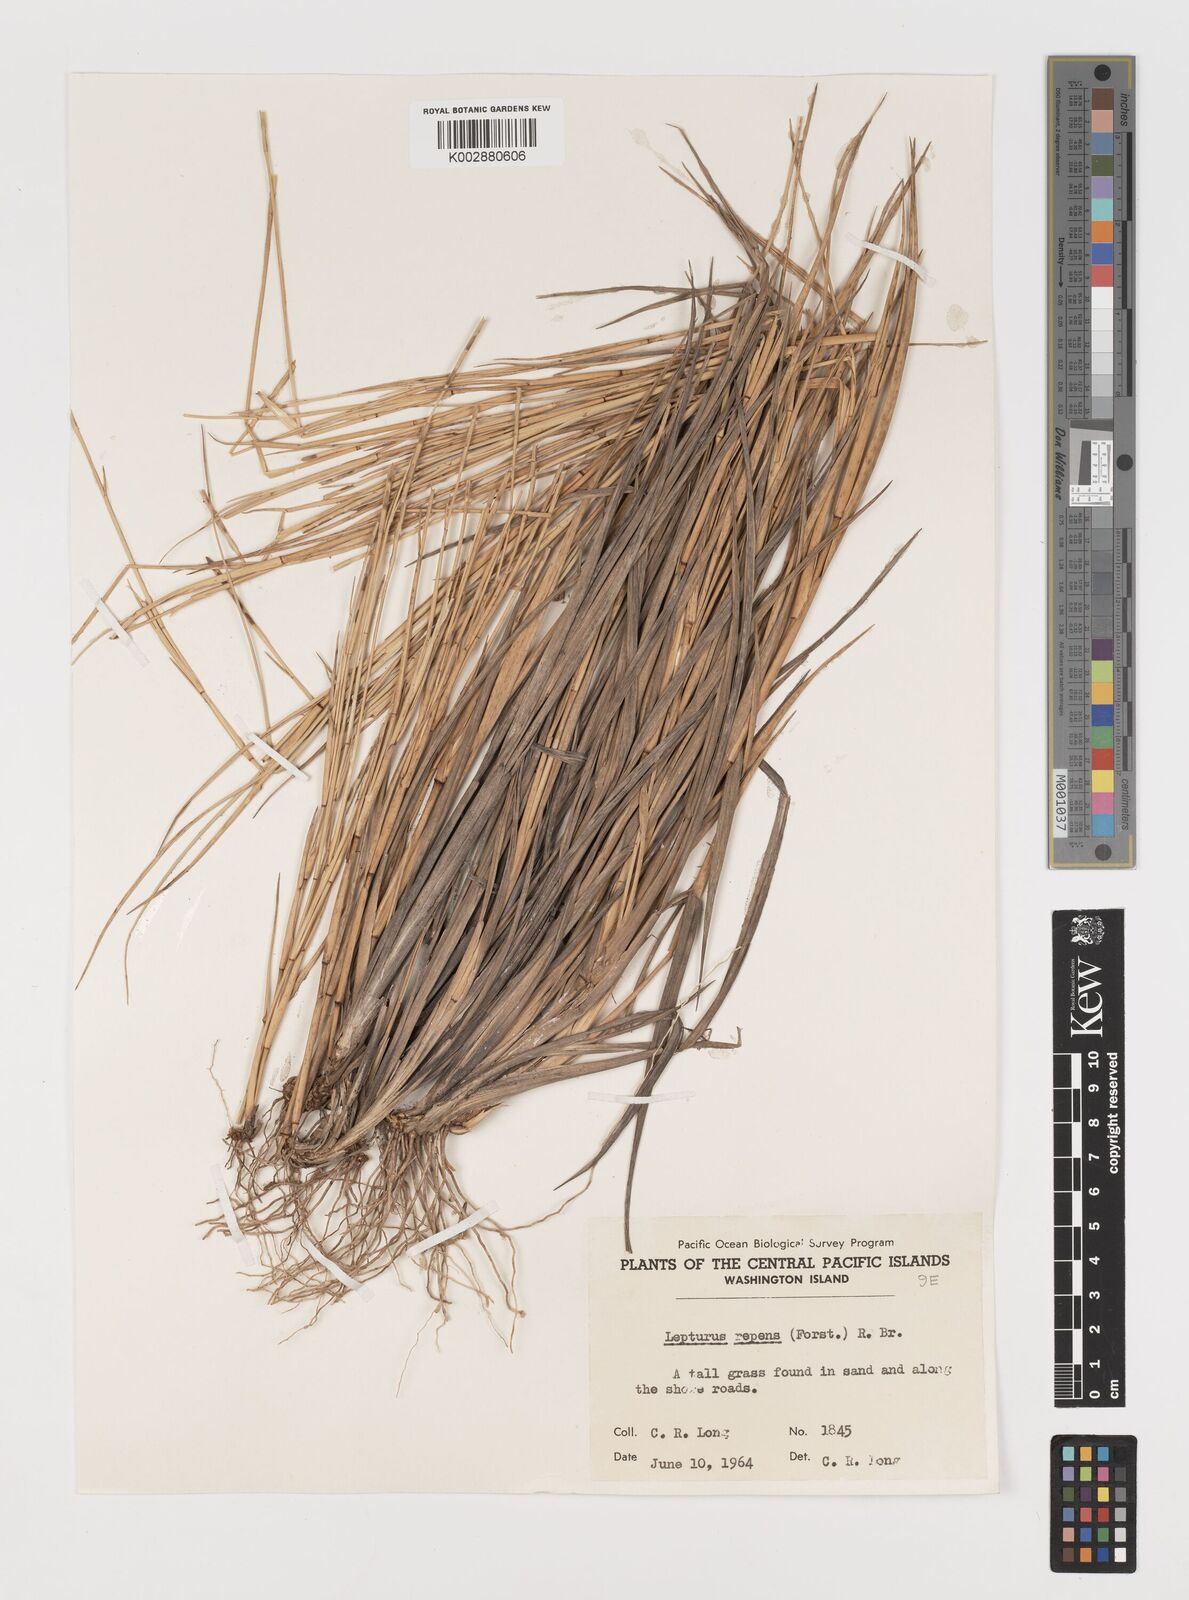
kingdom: Plantae
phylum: Tracheophyta
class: Liliopsida
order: Poales
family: Poaceae
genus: Lepturus
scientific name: Lepturus repens
